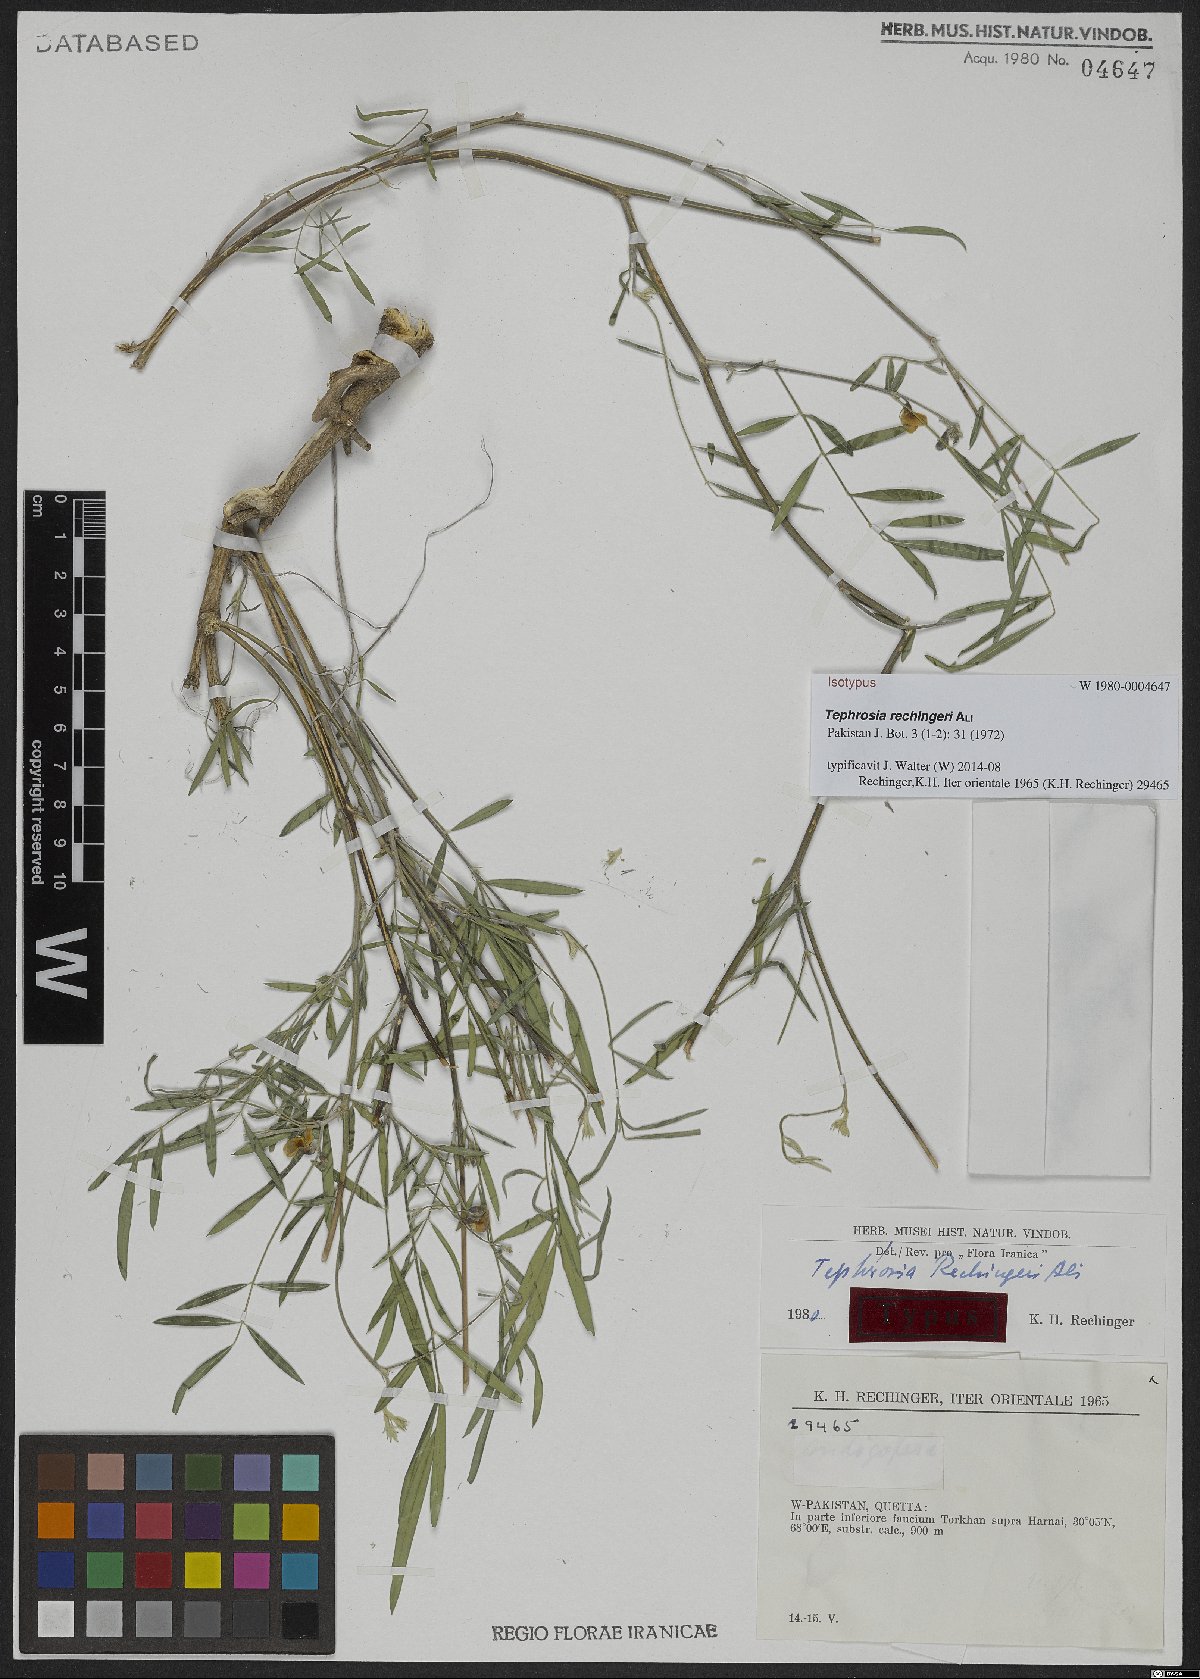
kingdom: Plantae
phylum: Tracheophyta
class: Magnoliopsida
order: Fabales
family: Fabaceae
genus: Tephrosia
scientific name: Tephrosia rechingeri
